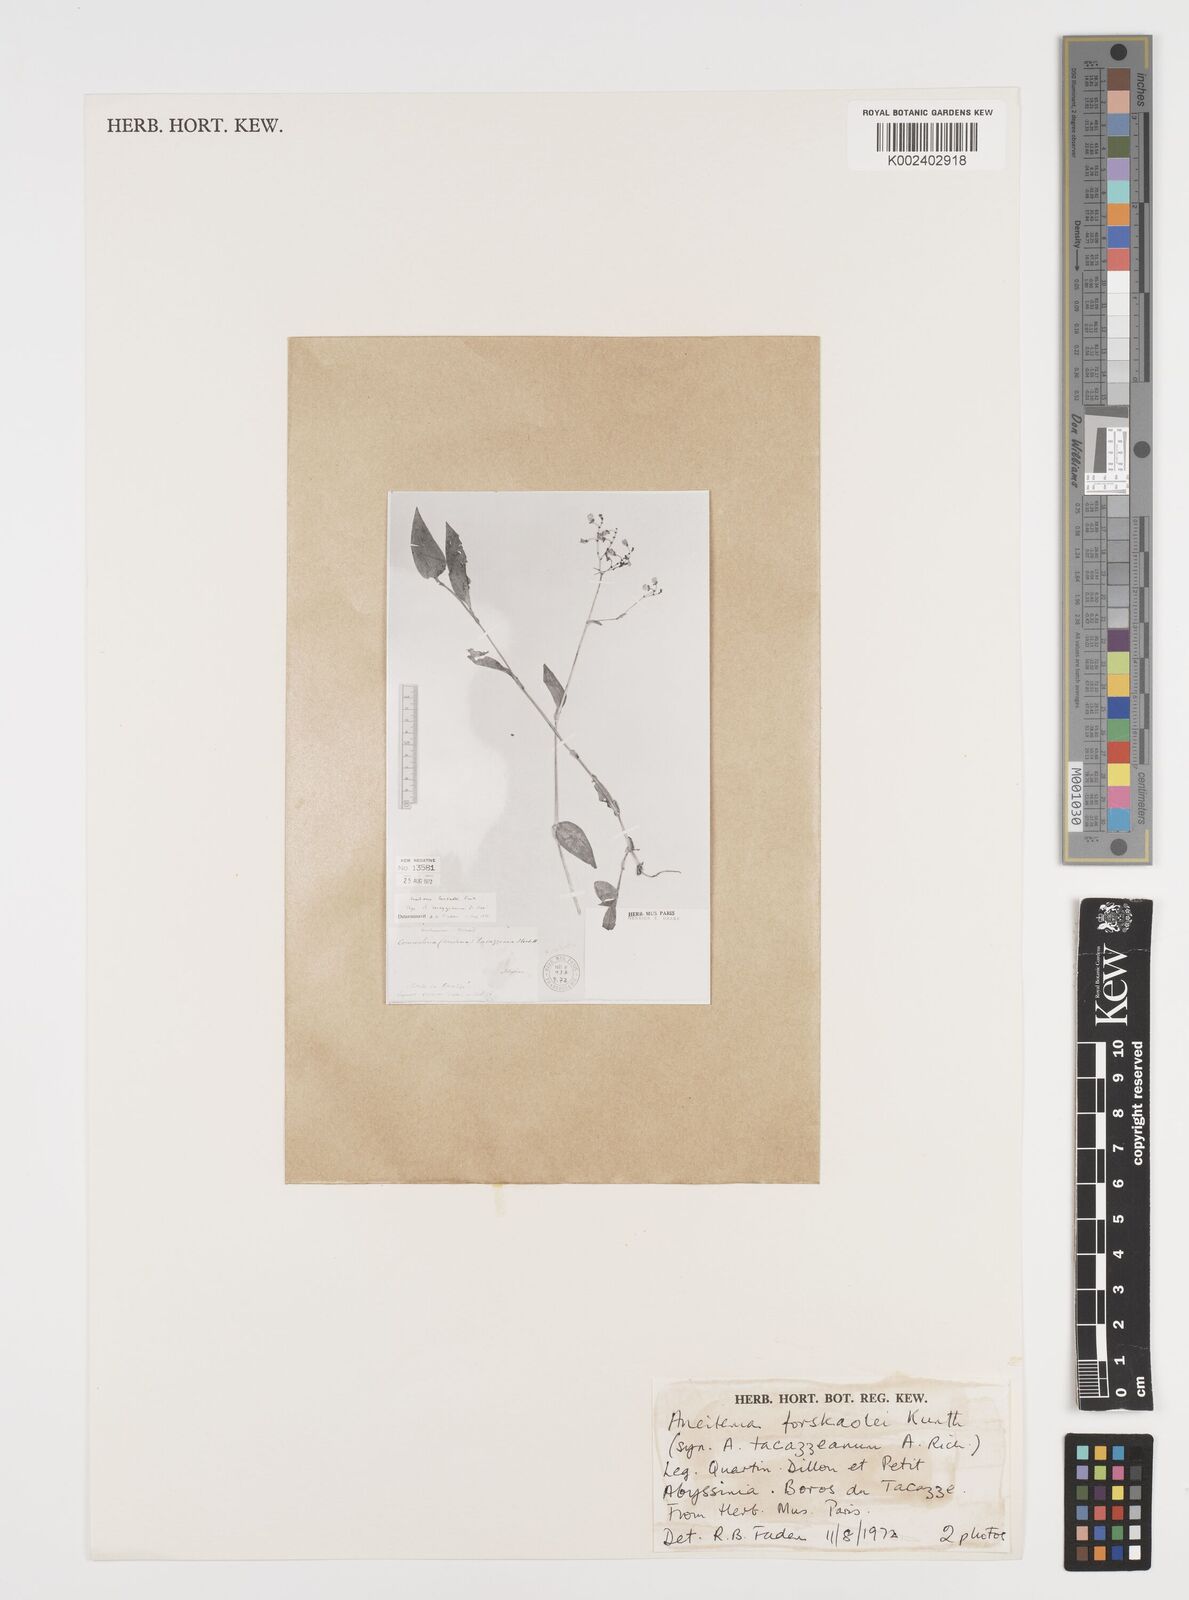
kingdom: Plantae
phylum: Tracheophyta
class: Liliopsida
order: Commelinales
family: Commelinaceae
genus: Aneilema
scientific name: Aneilema forskalii
